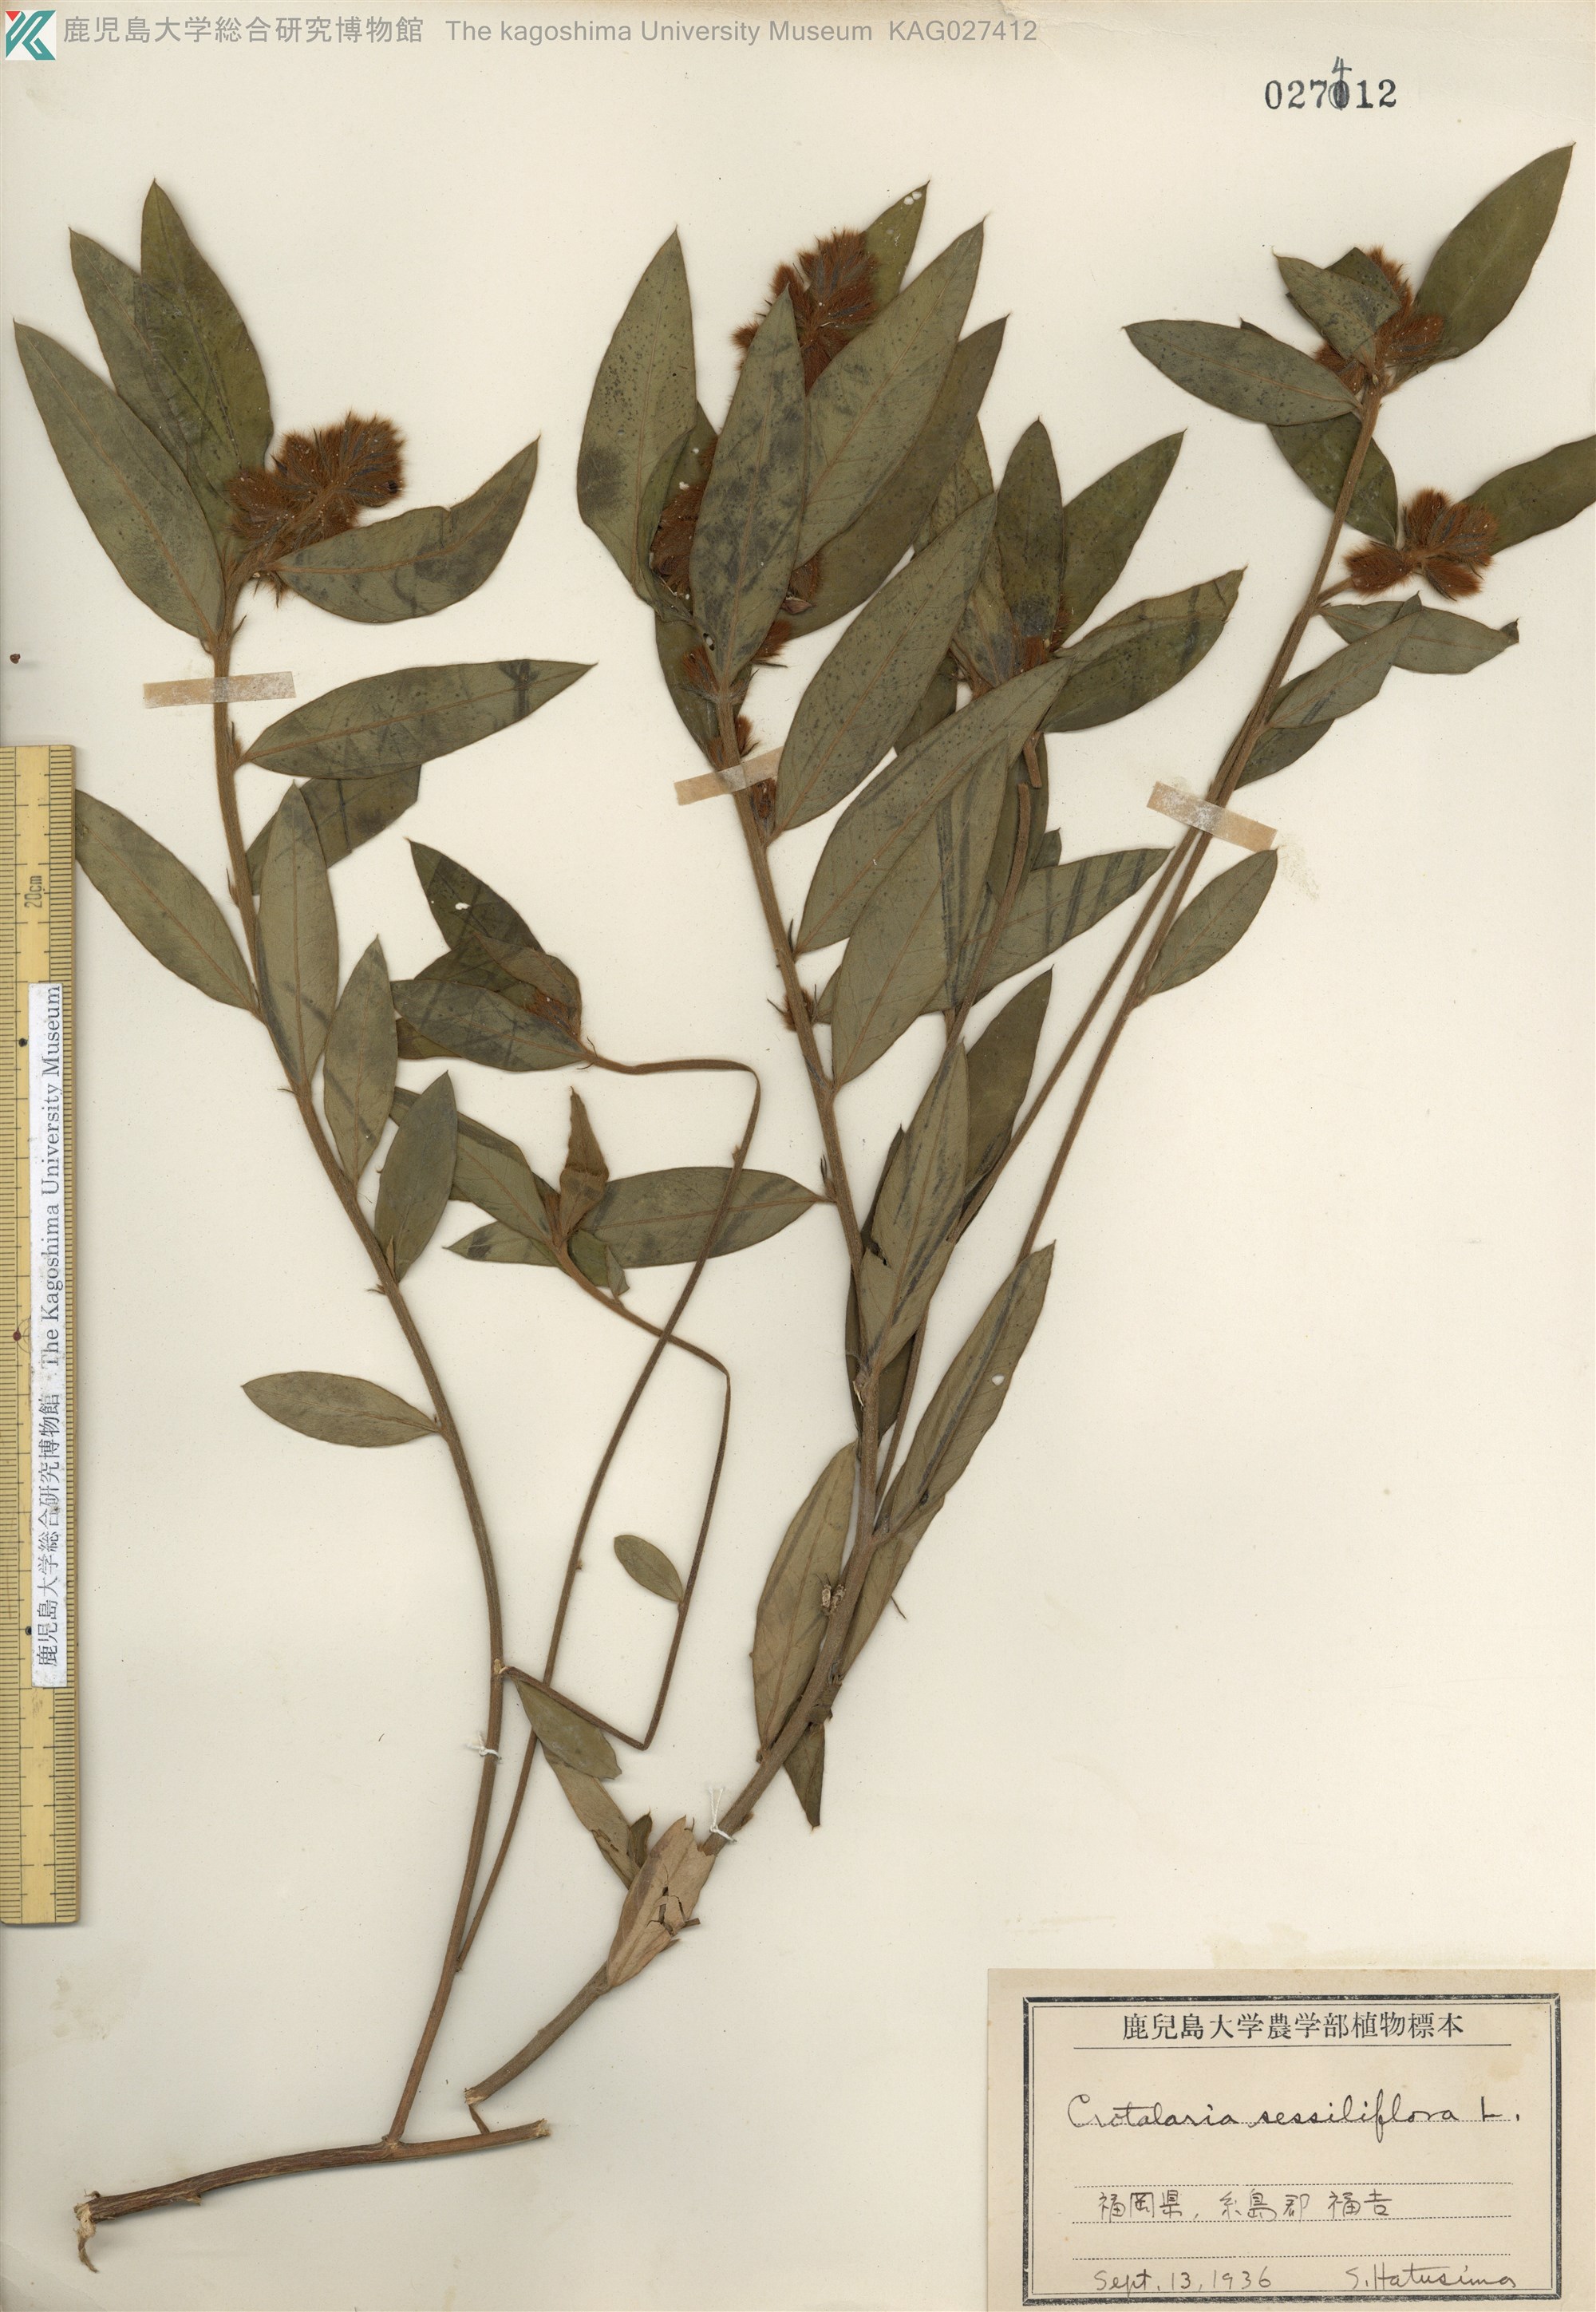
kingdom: Plantae
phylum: Tracheophyta
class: Magnoliopsida
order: Fabales
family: Fabaceae
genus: Crotalaria
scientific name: Crotalaria sessiliflora
